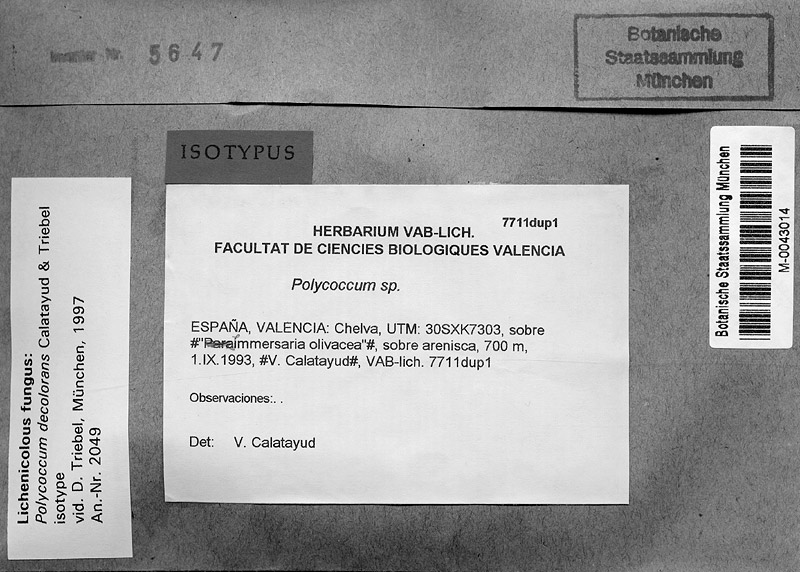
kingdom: Fungi
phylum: Ascomycota
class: Lecanoromycetes
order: Lecideales
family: Lecideaceae
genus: Immersaria
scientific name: Immersaria
